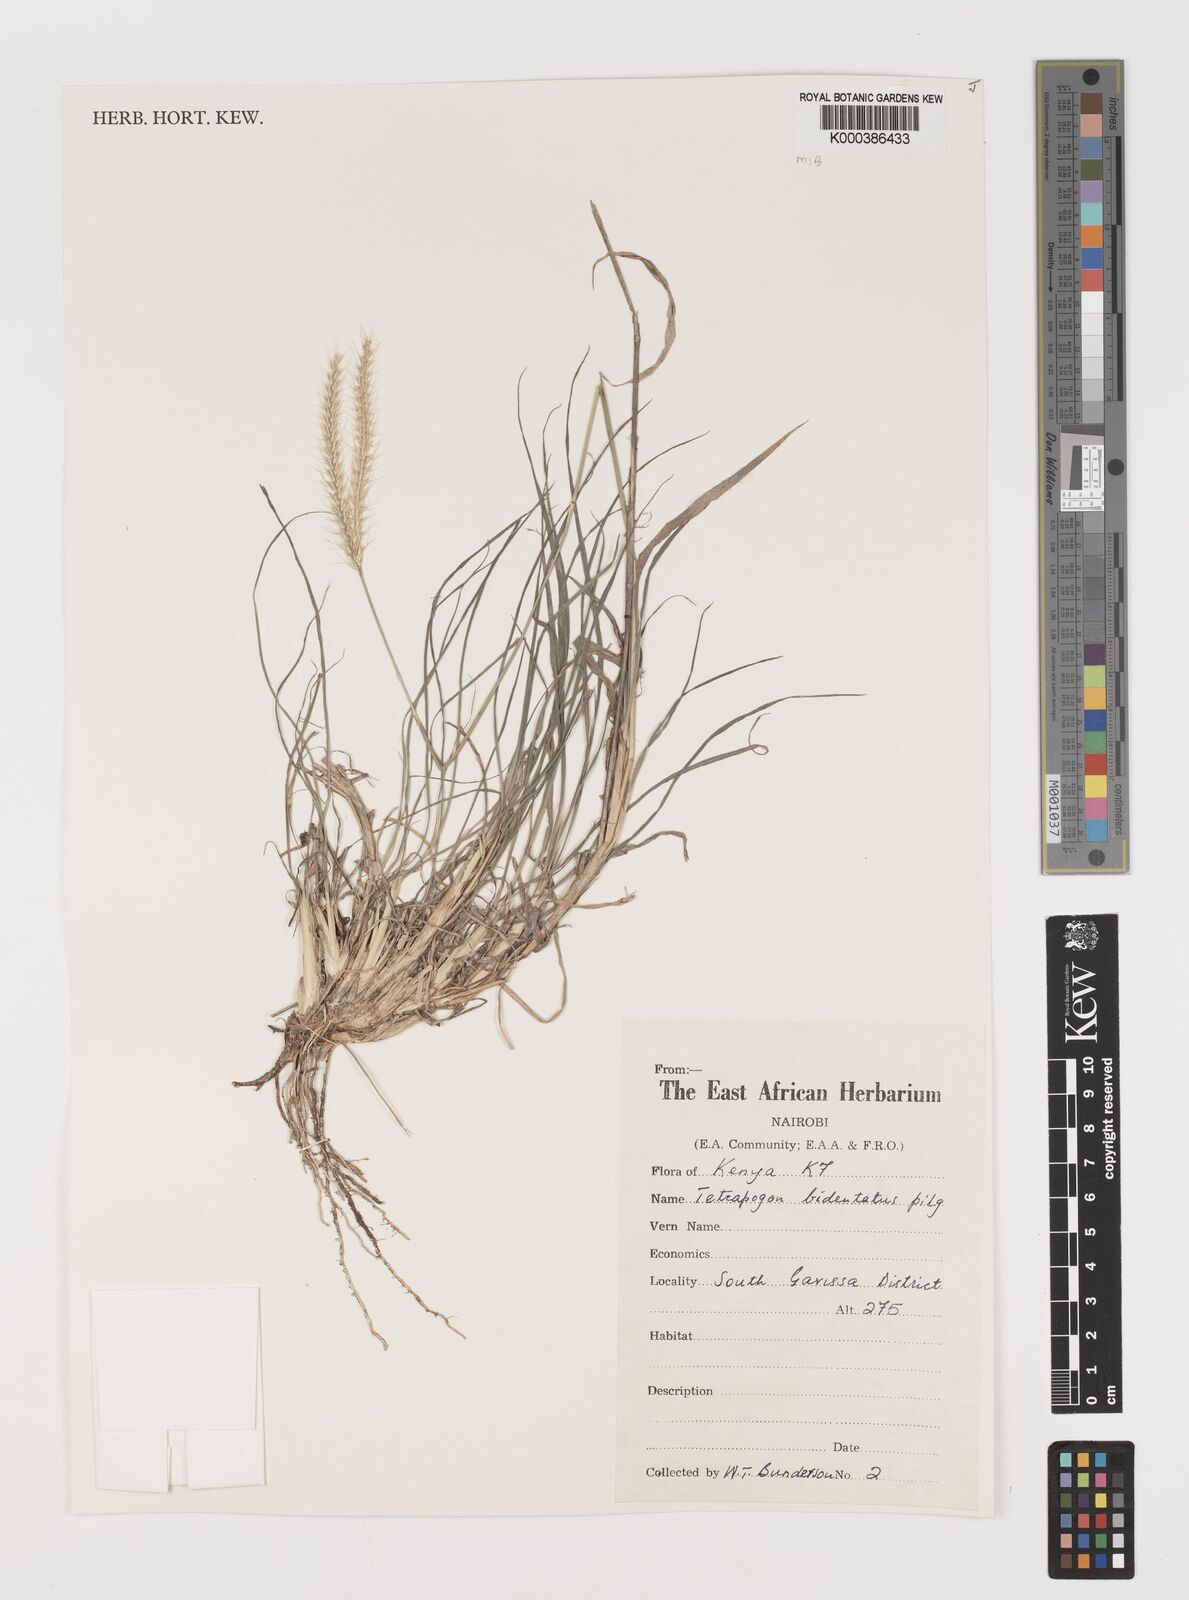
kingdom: Plantae
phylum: Tracheophyta
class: Liliopsida
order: Poales
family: Poaceae
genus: Tetrapogon
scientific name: Tetrapogon bidentatus
